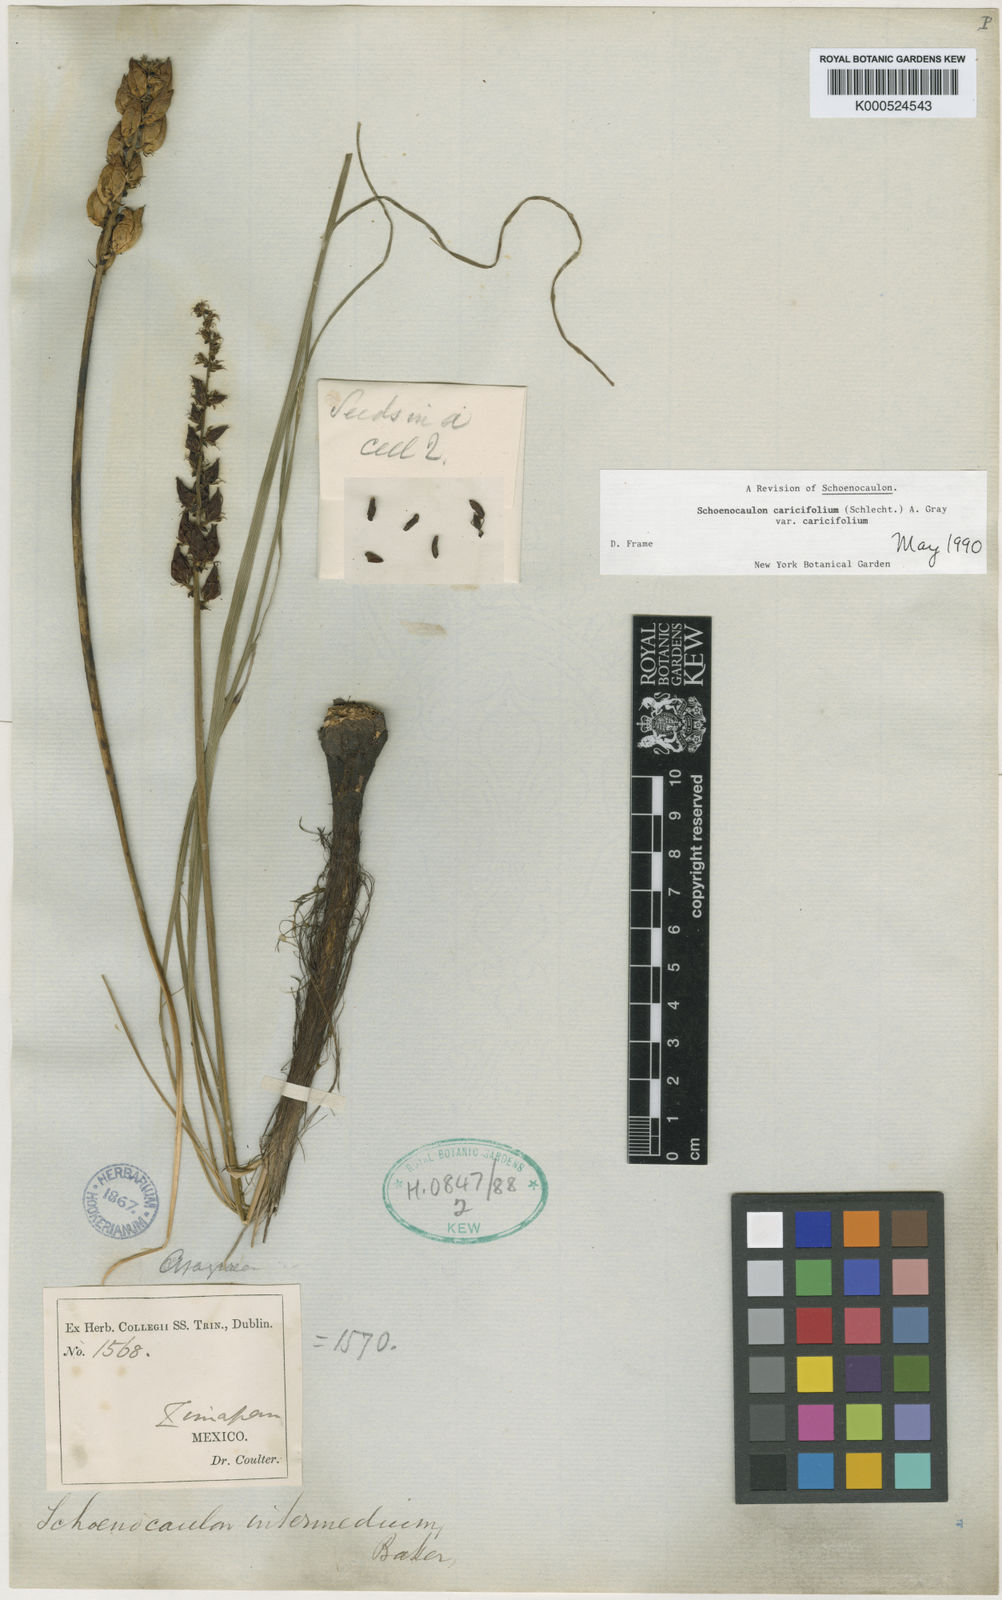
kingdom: Plantae
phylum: Tracheophyta
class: Liliopsida
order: Liliales
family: Melanthiaceae
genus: Schoenocaulon
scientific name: Schoenocaulon caricifolium
